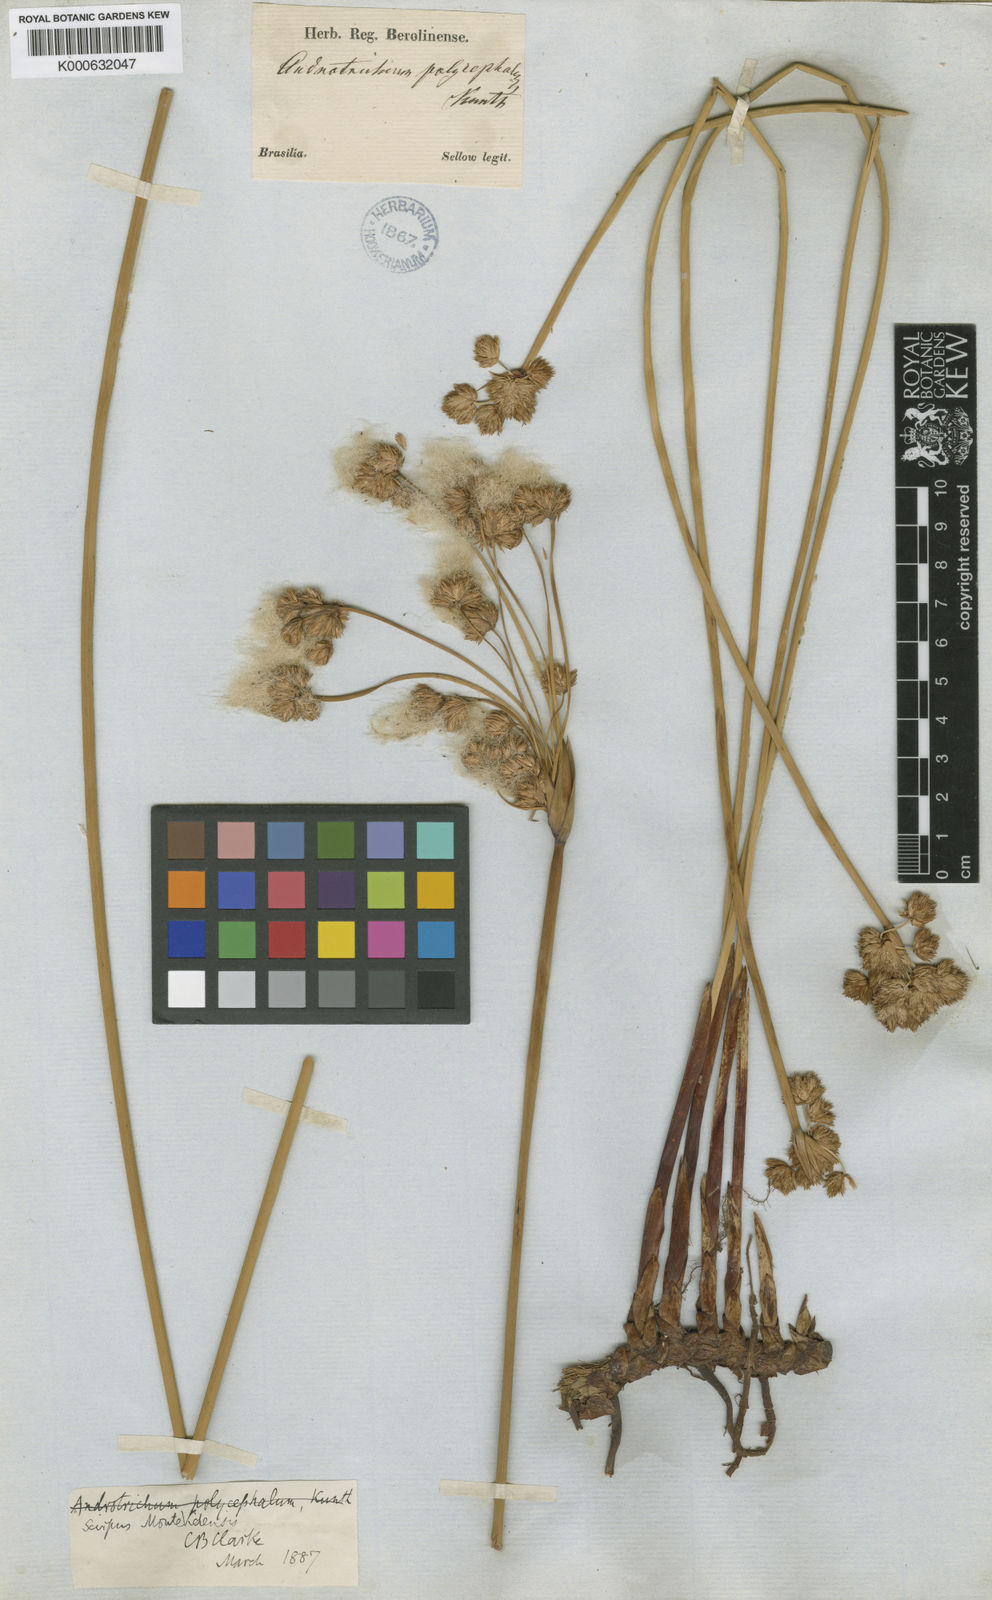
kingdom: Plantae
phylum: Tracheophyta
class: Liliopsida
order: Poales
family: Cyperaceae
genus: Cyperus
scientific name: Cyperus trigynus
